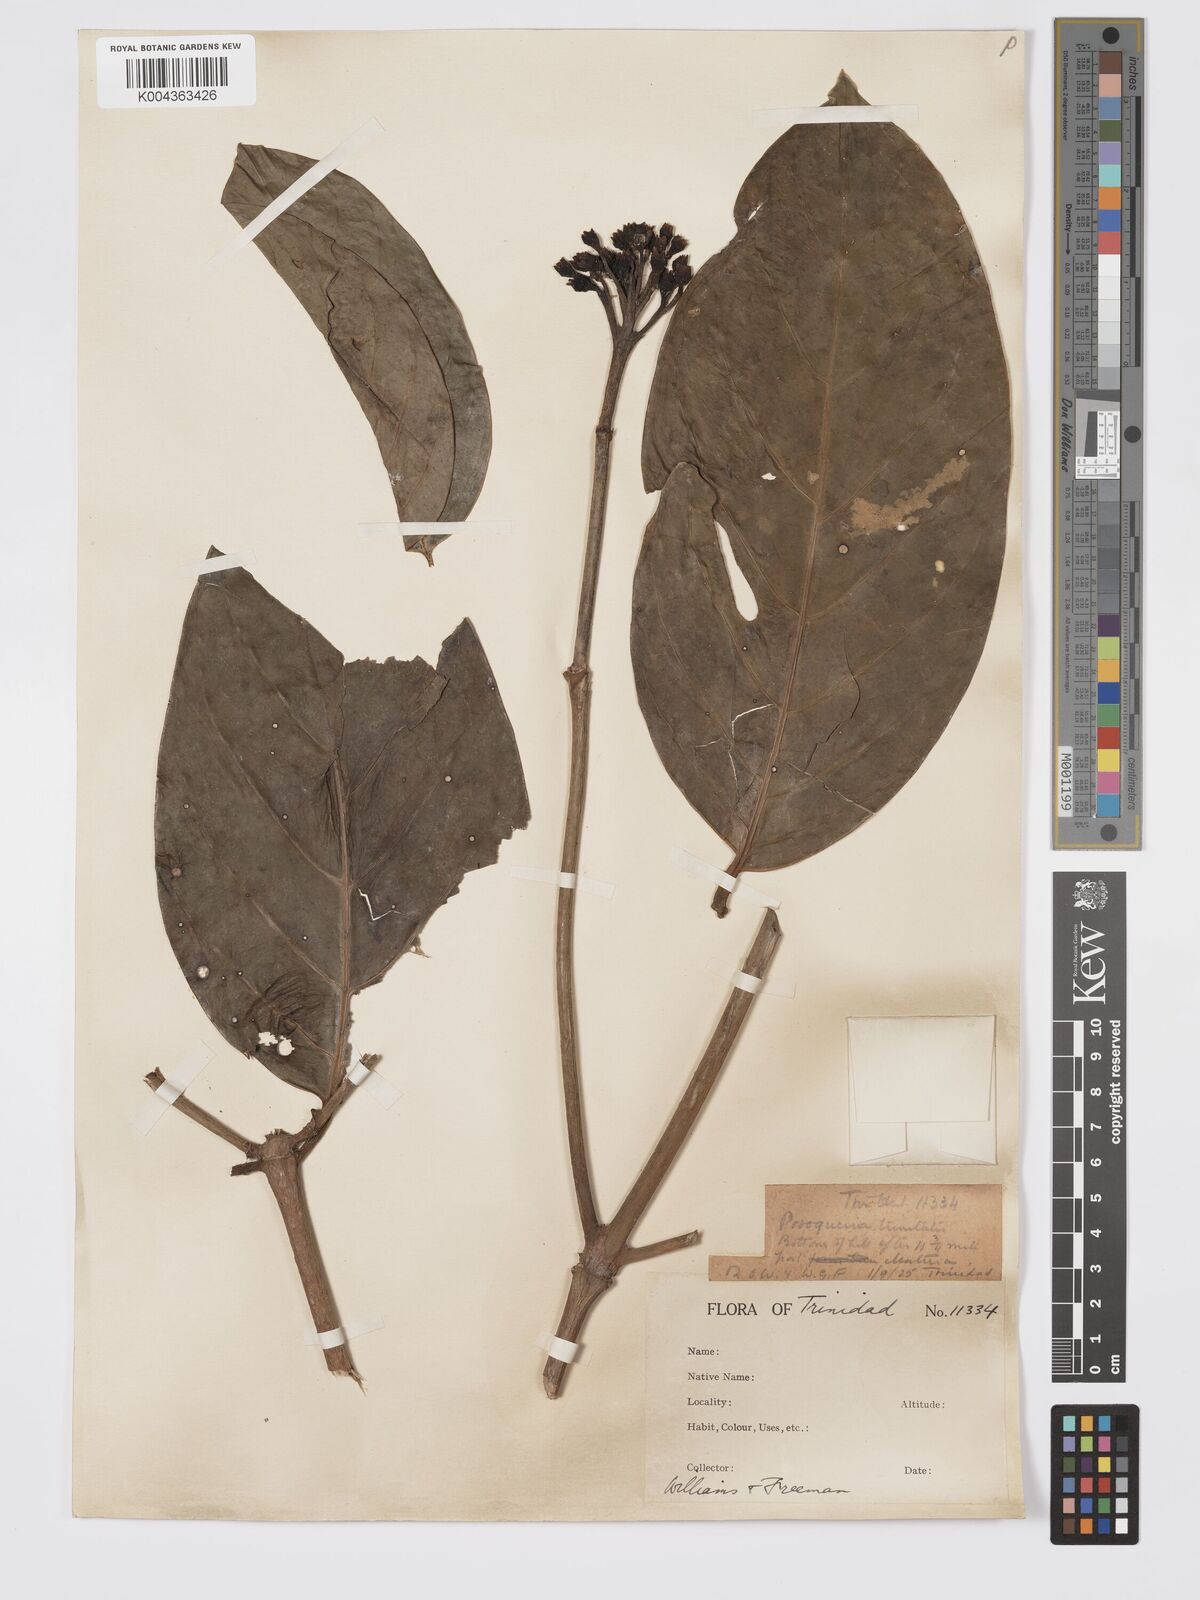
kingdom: Plantae
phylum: Tracheophyta
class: Magnoliopsida
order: Gentianales
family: Rubiaceae
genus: Posoqueria
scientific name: Posoqueria trinitatis
